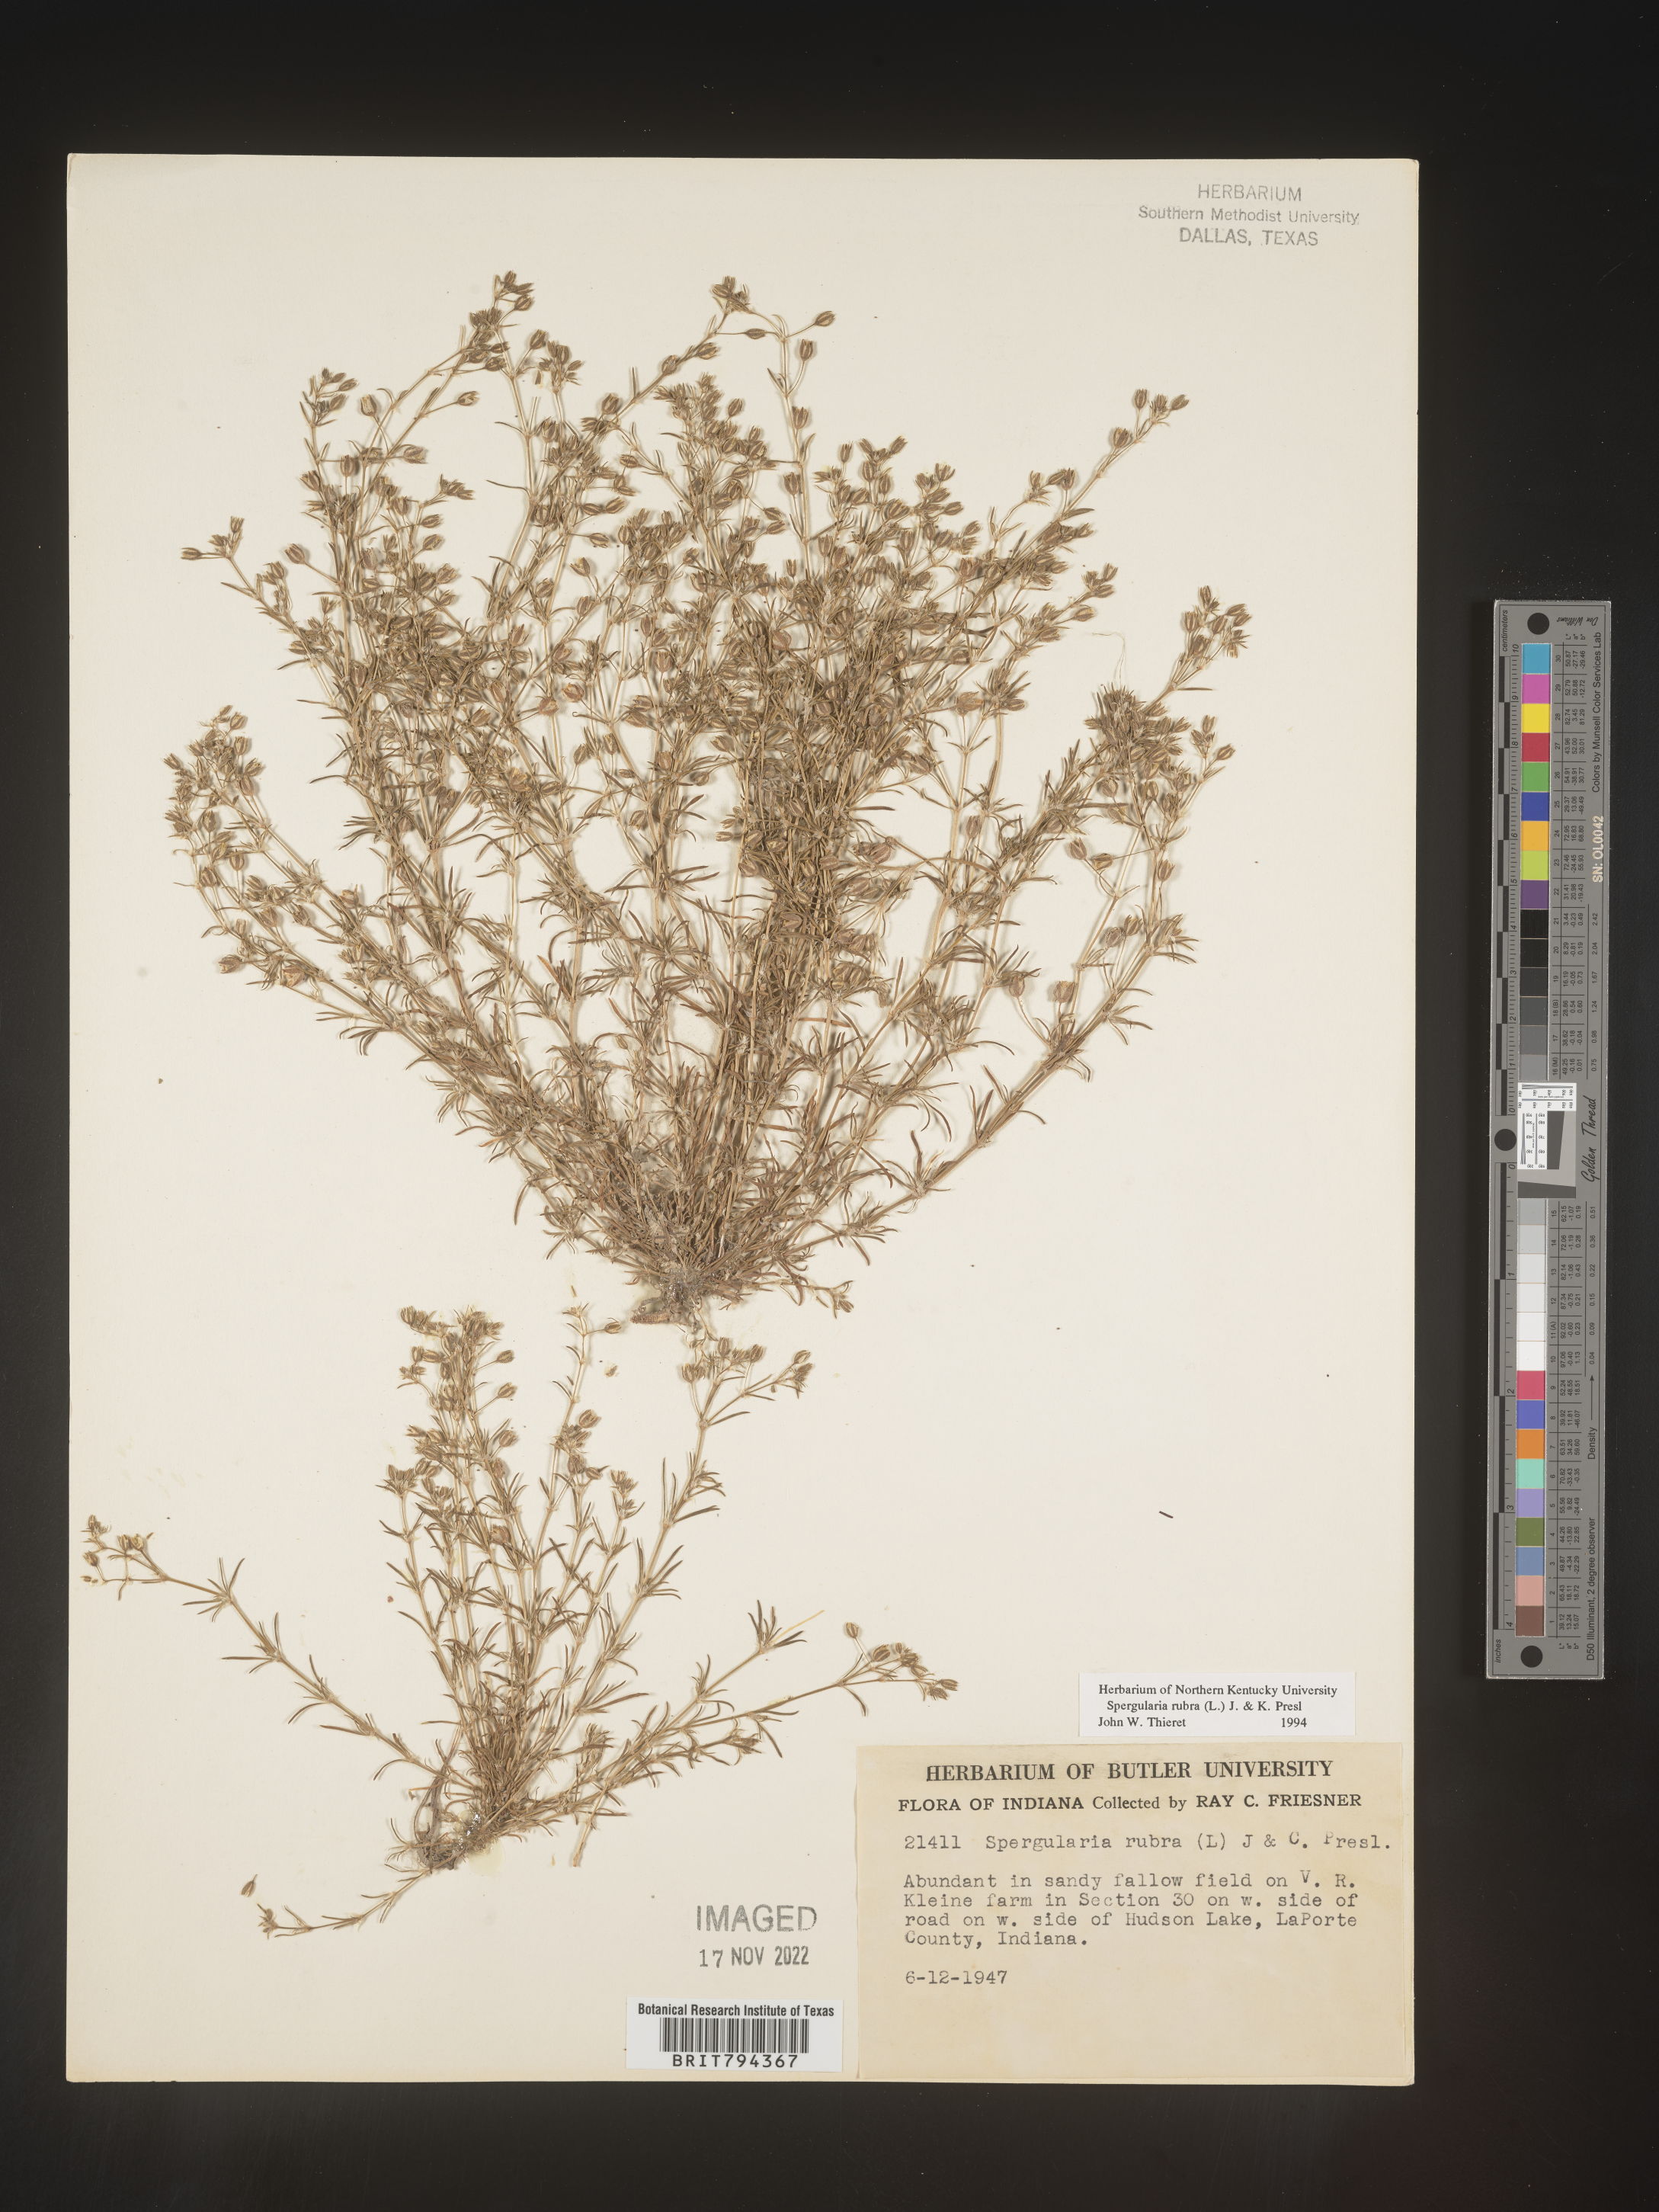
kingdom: Plantae
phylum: Tracheophyta
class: Magnoliopsida
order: Caryophyllales
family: Caryophyllaceae
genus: Spergularia
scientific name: Spergularia rubra
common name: Red sand-spurrey
